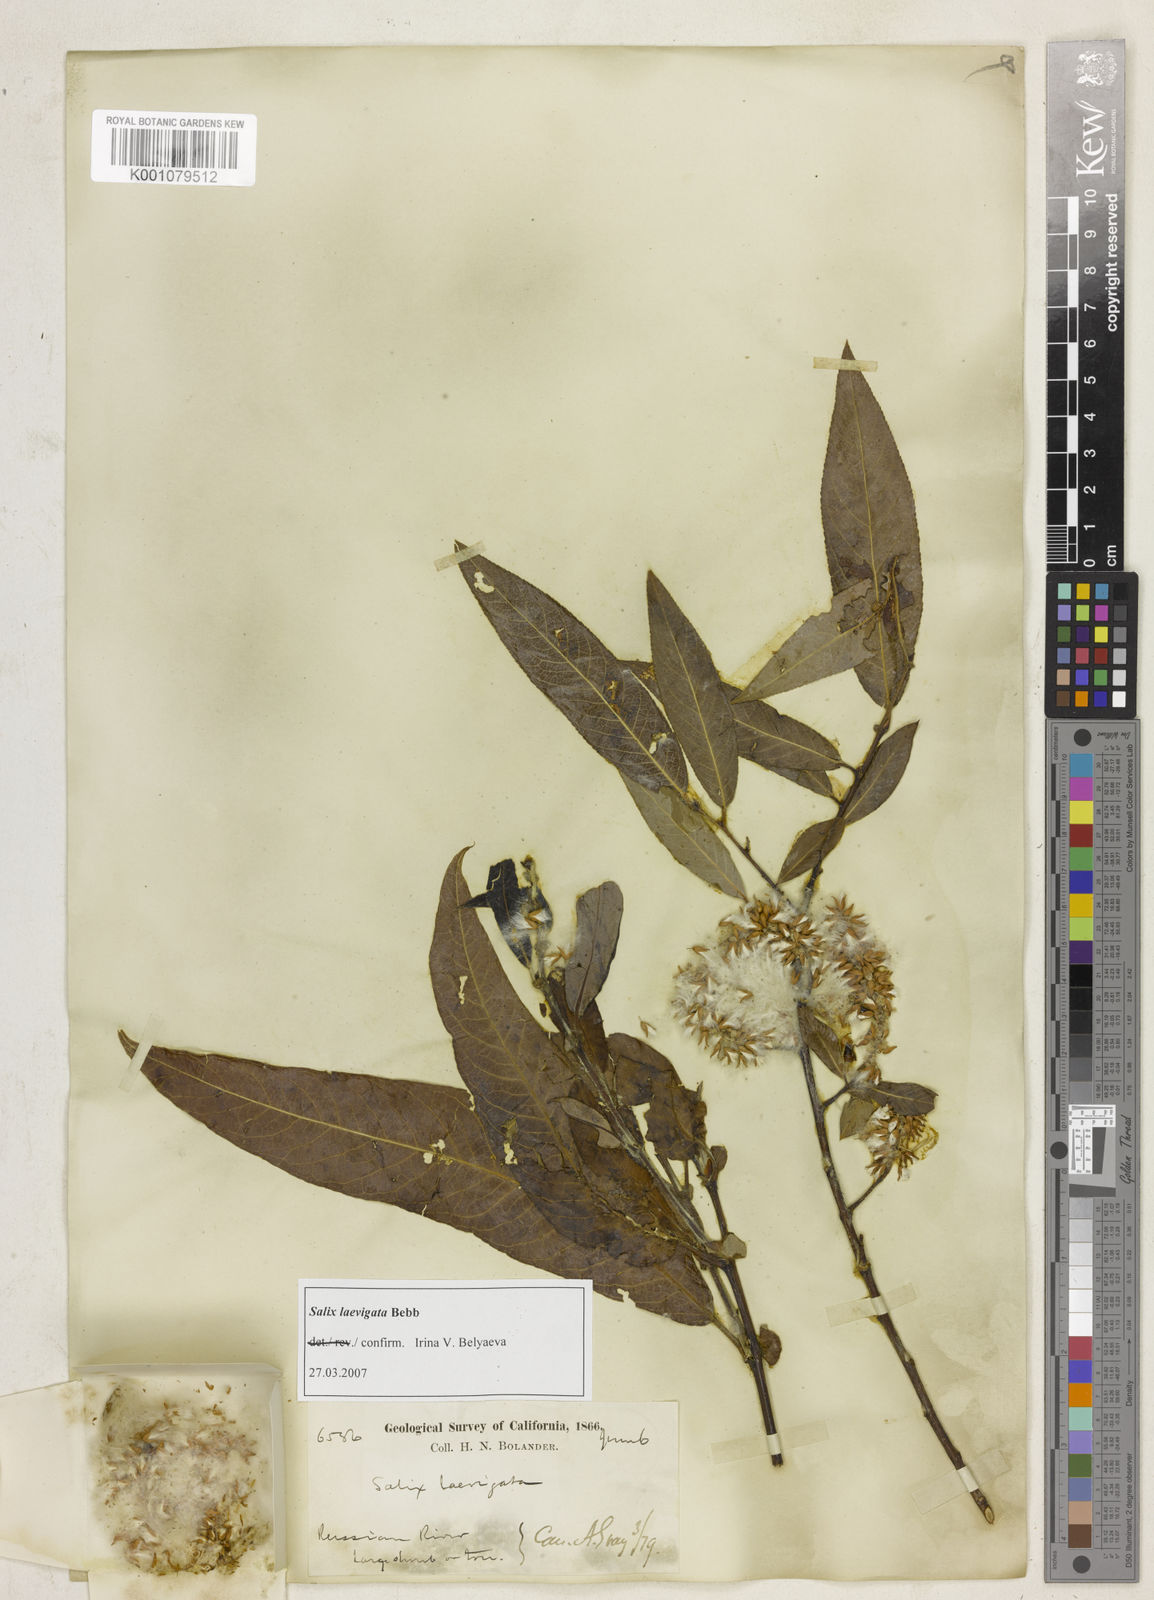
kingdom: Plantae
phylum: Tracheophyta
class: Magnoliopsida
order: Malpighiales
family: Salicaceae
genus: Salix
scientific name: Salix laevigata
